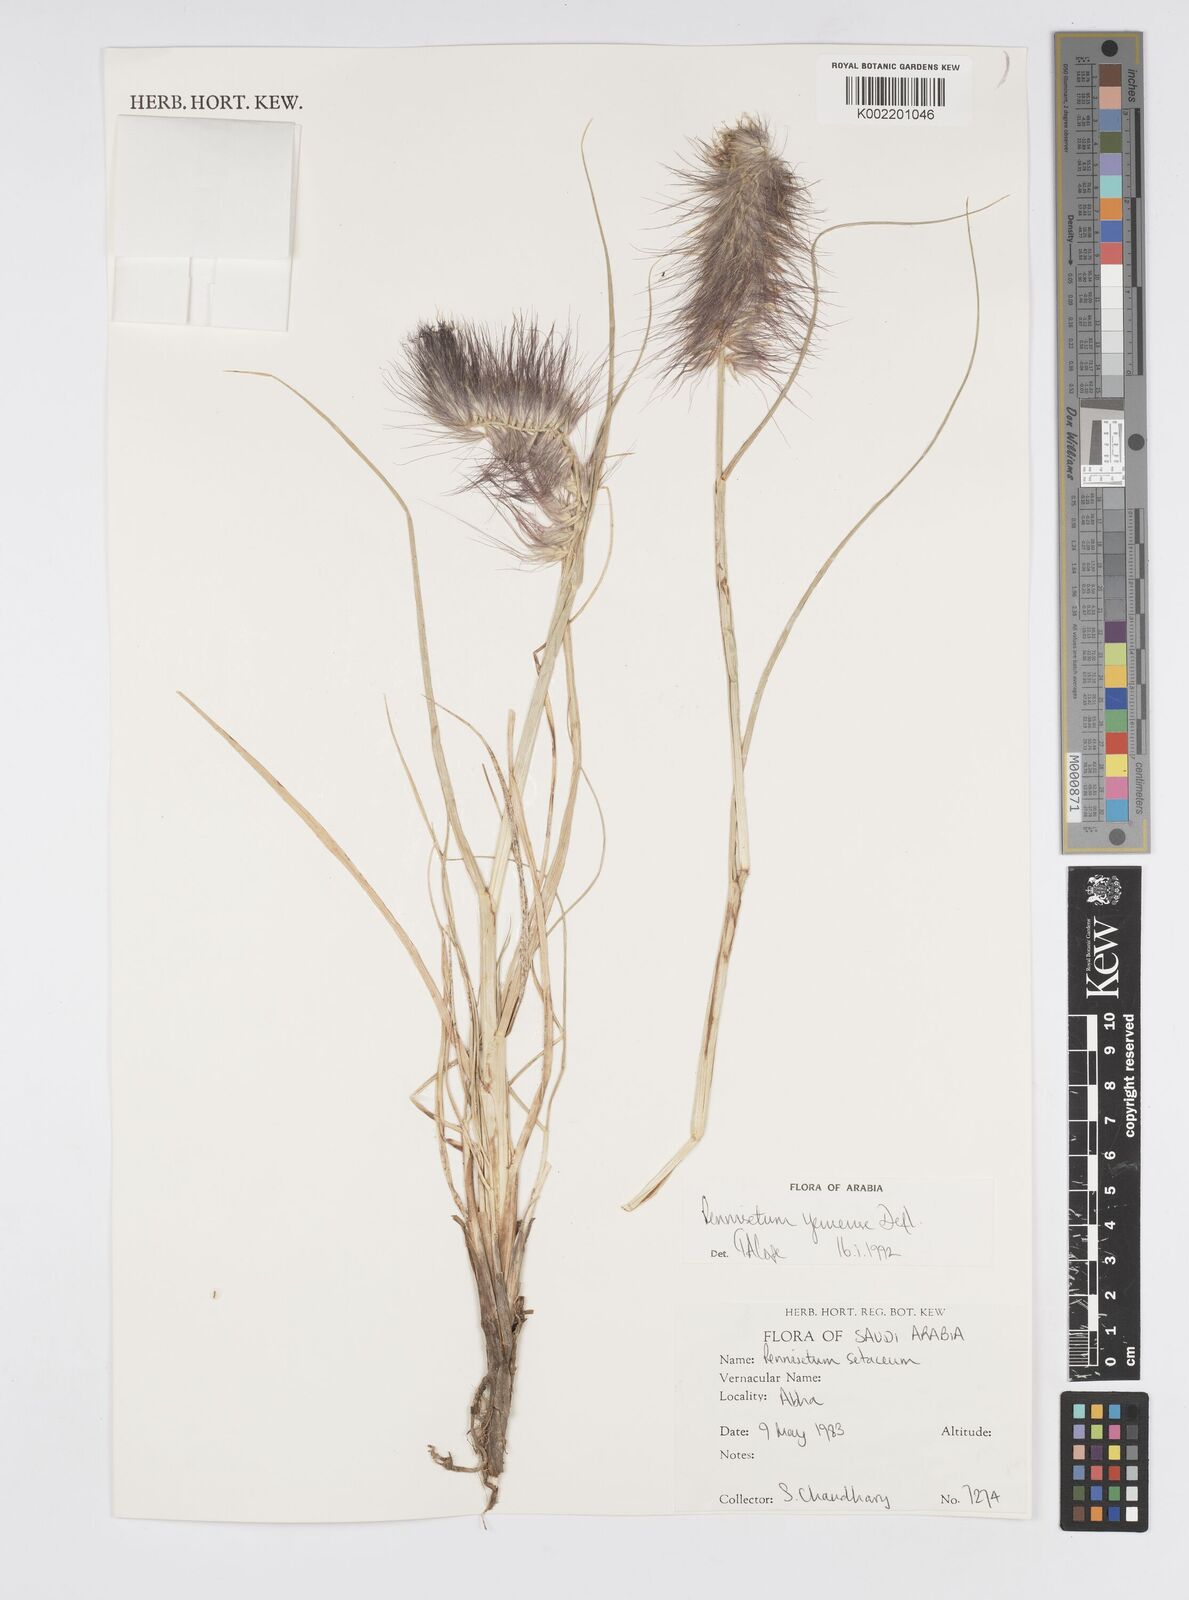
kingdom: Plantae
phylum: Tracheophyta
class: Liliopsida
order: Poales
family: Poaceae
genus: Cenchrus
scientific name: Cenchrus yemensis
